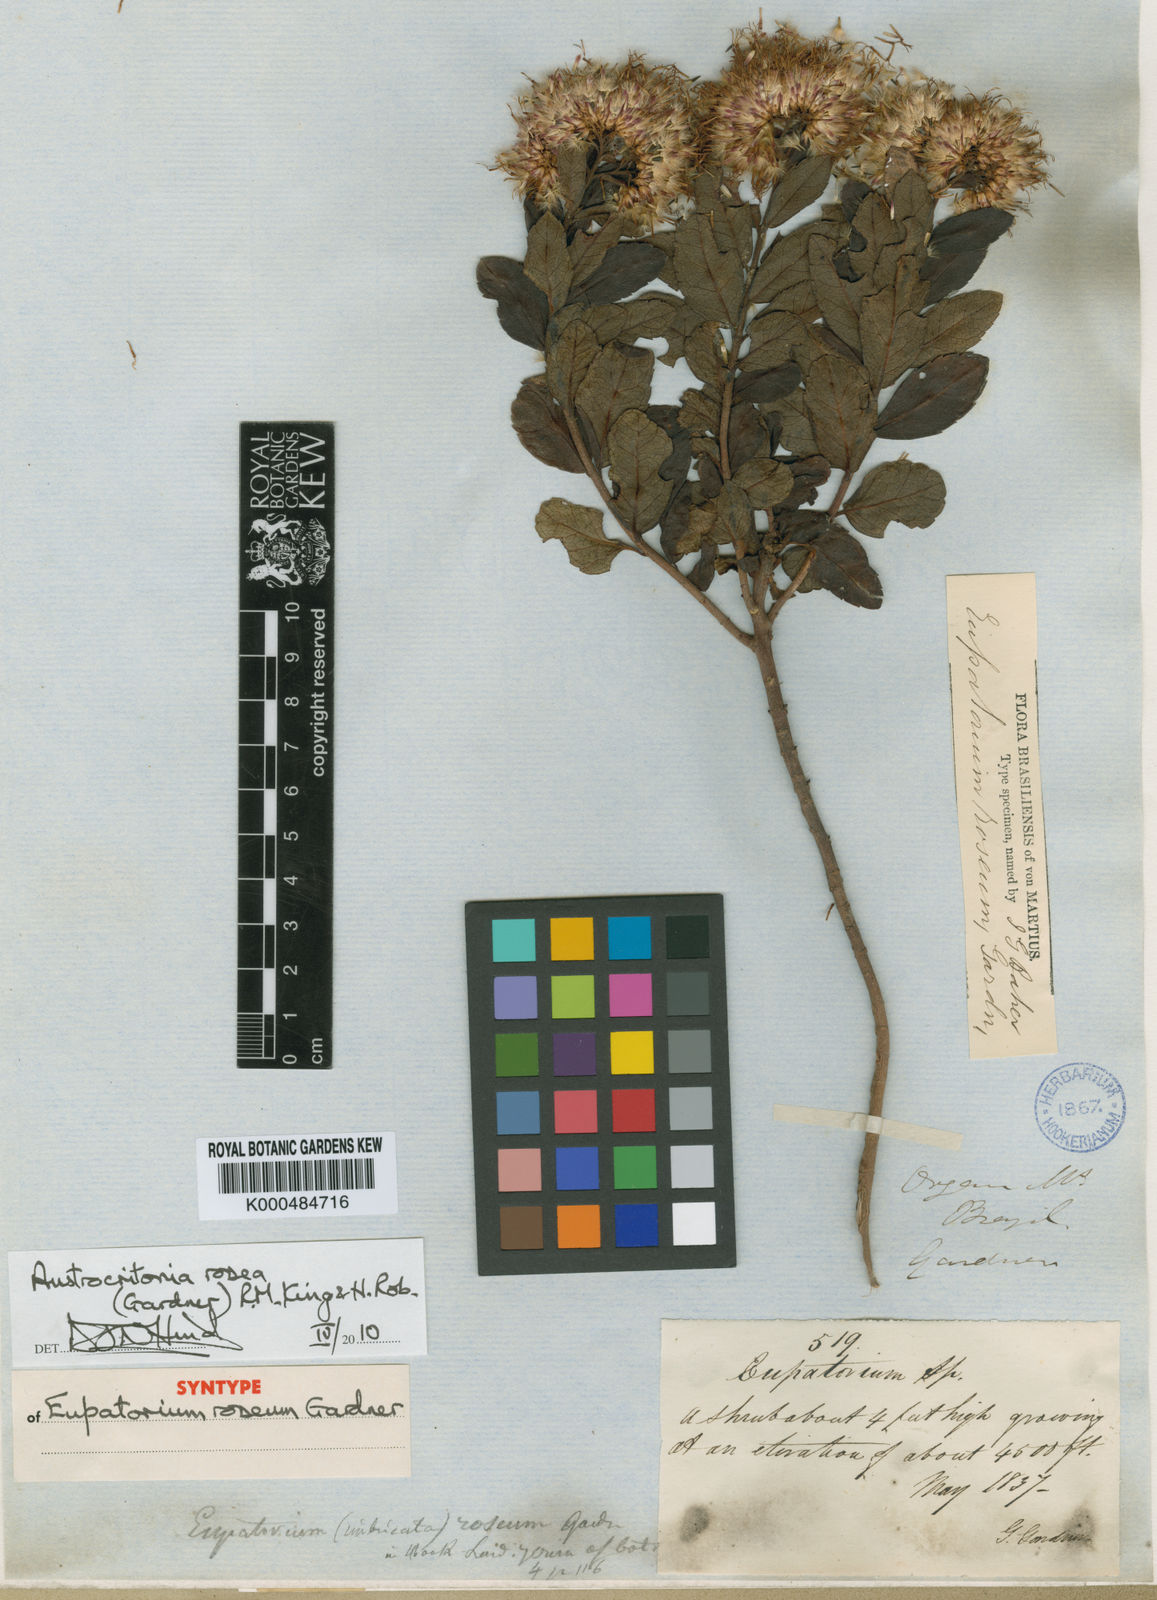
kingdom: Plantae
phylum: Tracheophyta
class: Magnoliopsida
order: Asterales
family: Asteraceae
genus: Austrocritonia
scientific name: Austrocritonia rosea
